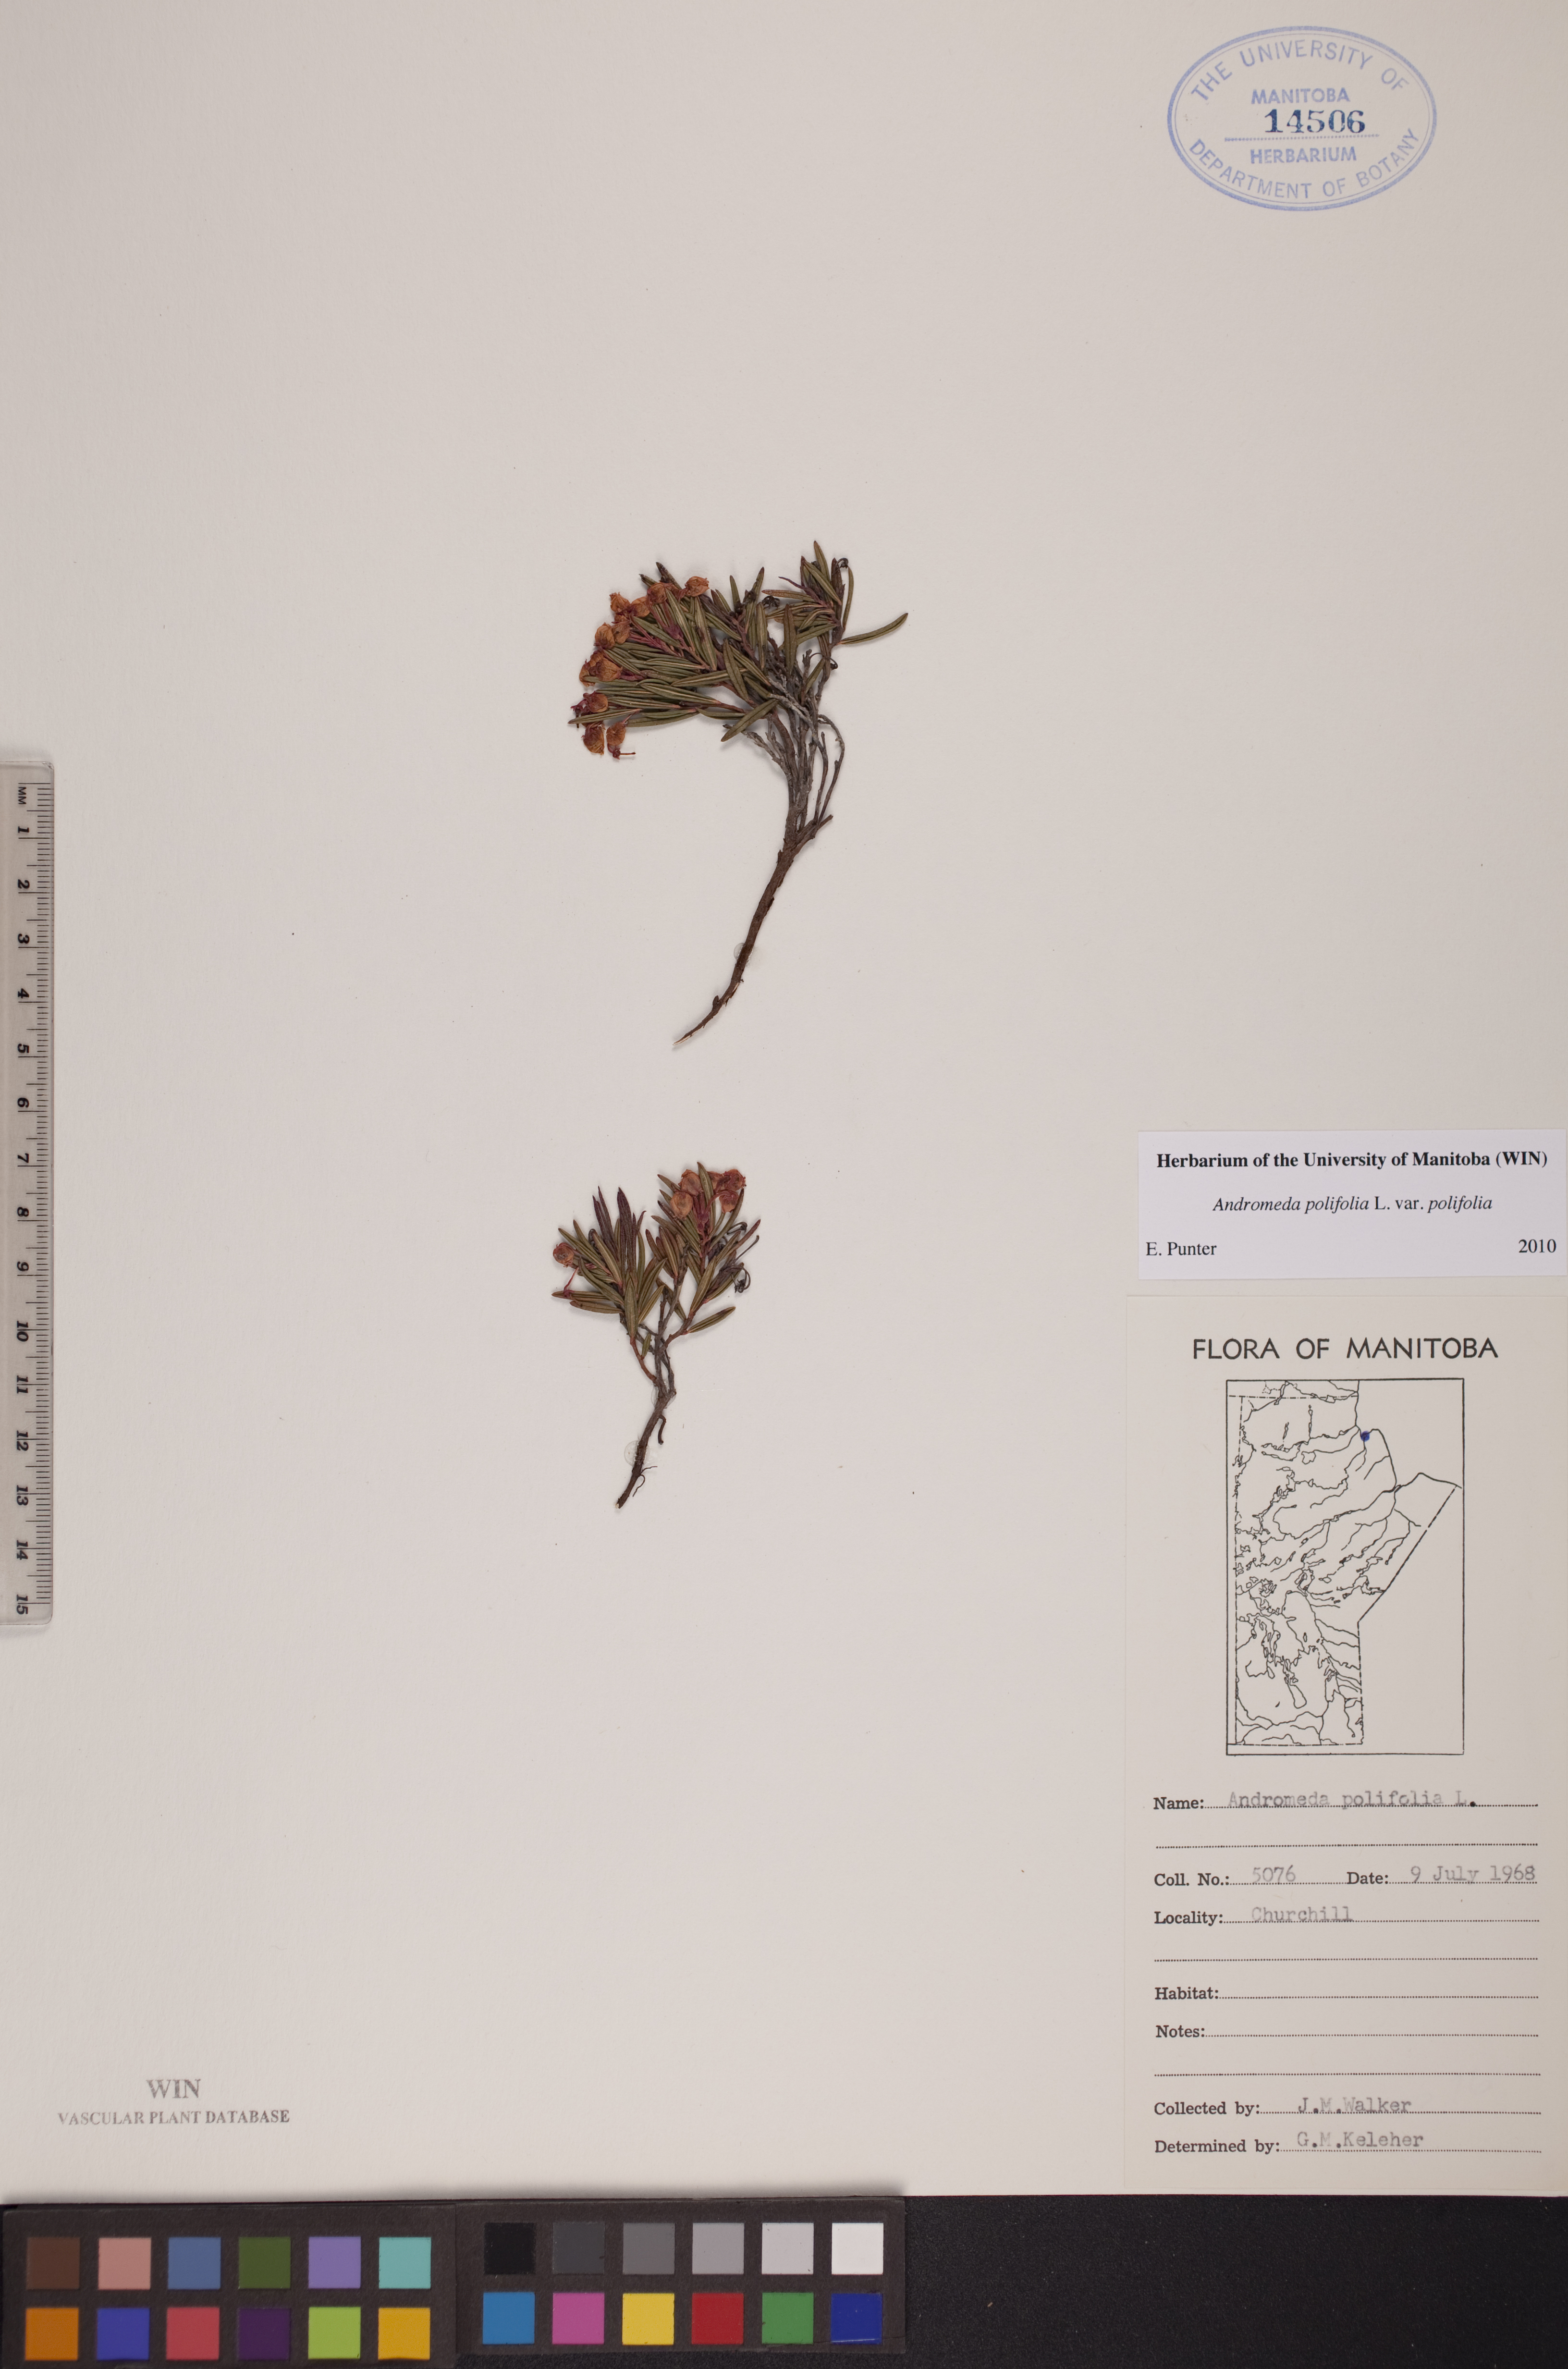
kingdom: Plantae
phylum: Tracheophyta
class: Magnoliopsida
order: Ericales
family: Ericaceae
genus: Andromeda
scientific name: Andromeda polifolia
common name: Bog-rosemary
